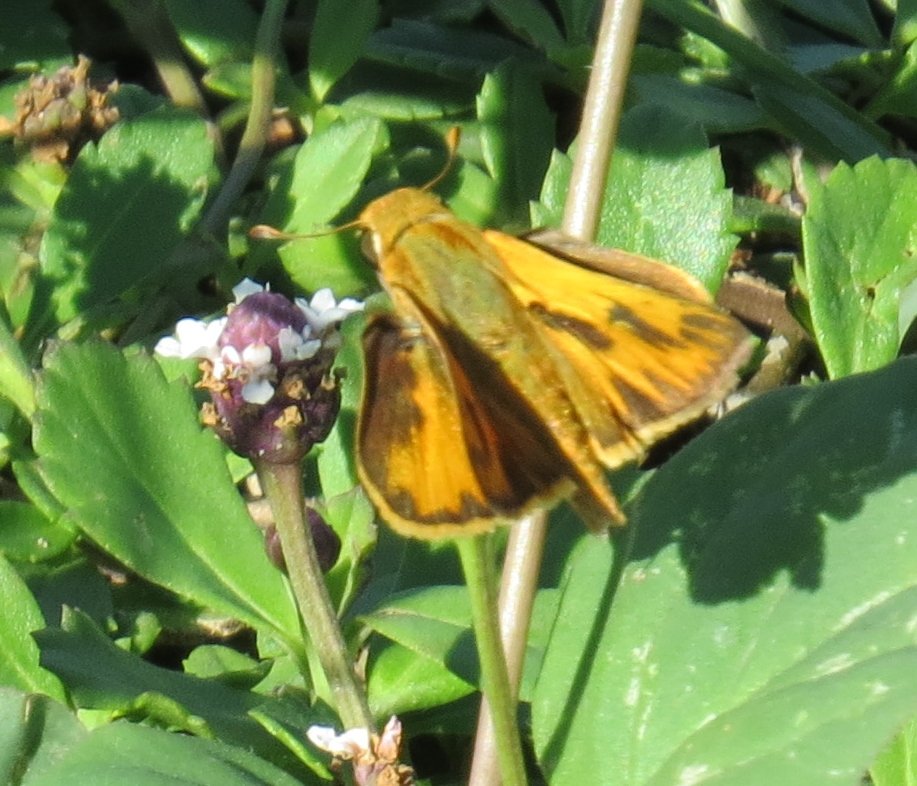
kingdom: Animalia
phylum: Arthropoda
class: Insecta
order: Lepidoptera
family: Hesperiidae
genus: Hylephila
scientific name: Hylephila phyleus
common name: Fiery Skipper
